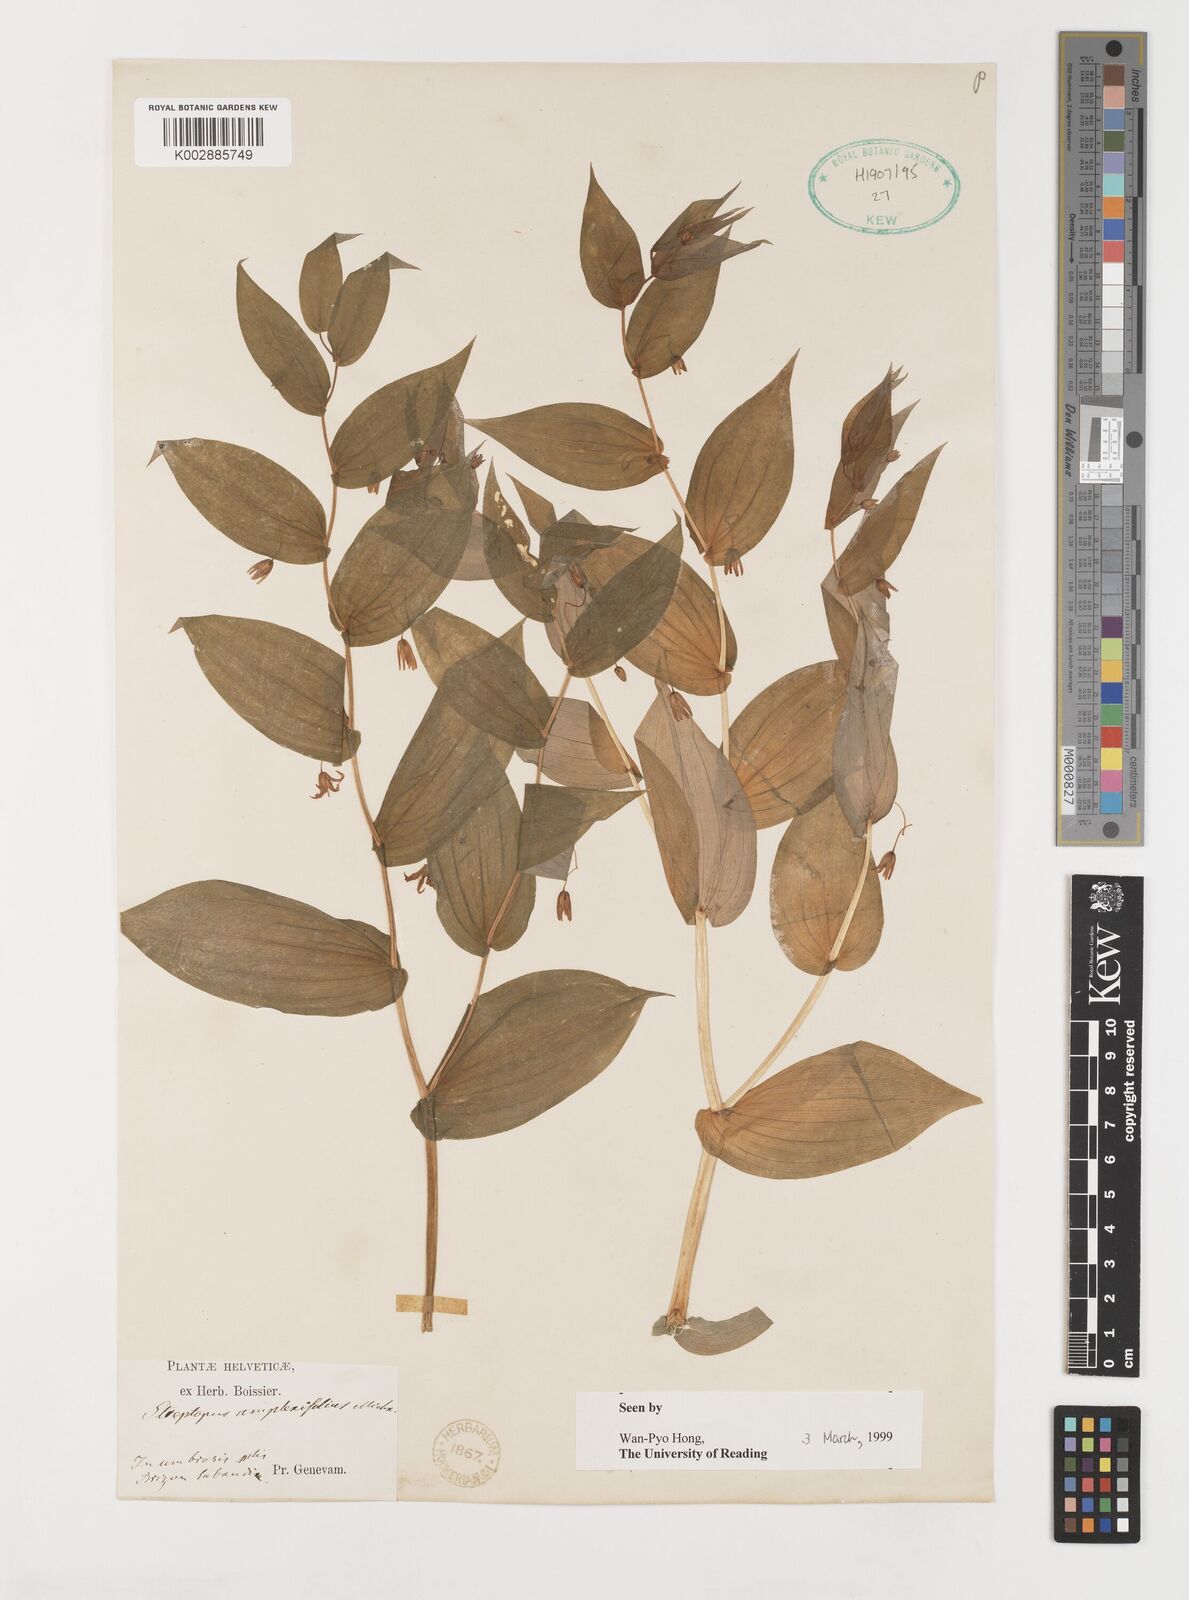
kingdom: Plantae
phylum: Tracheophyta
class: Liliopsida
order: Liliales
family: Liliaceae
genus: Streptopus
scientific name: Streptopus amplexifolius
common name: Clasp twisted stalk
